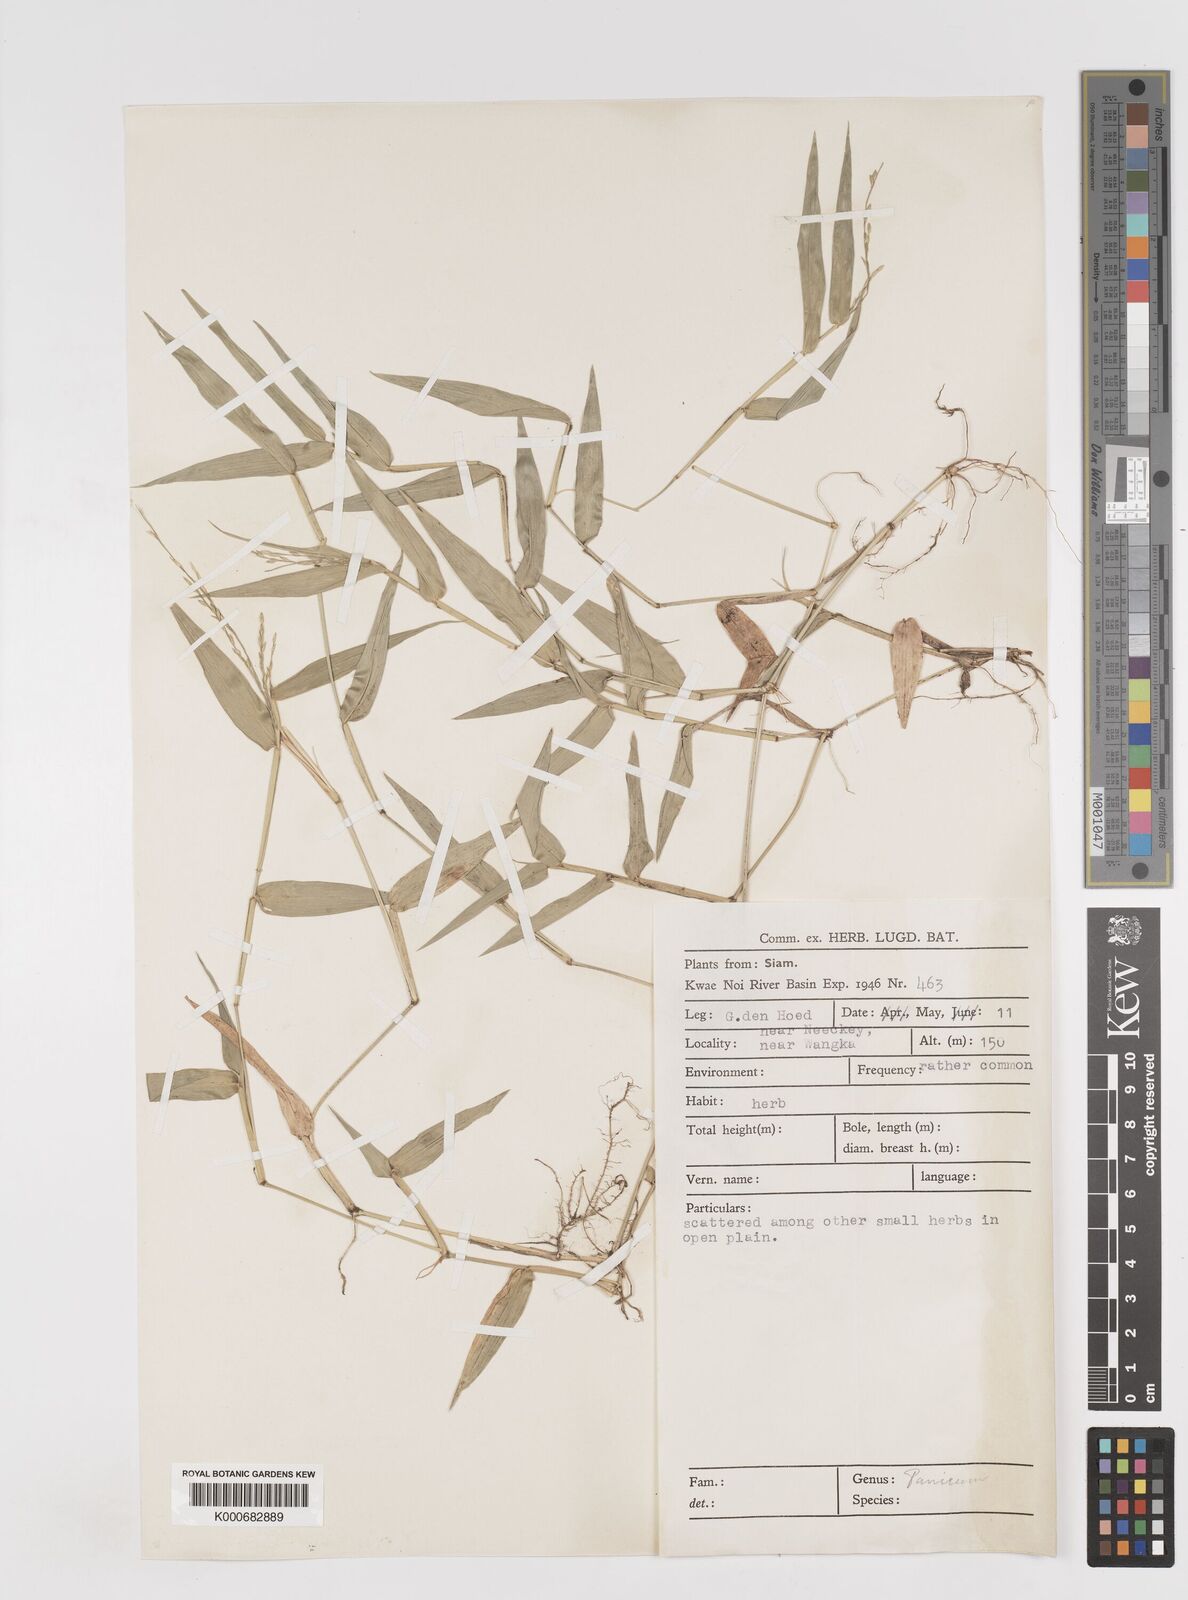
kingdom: Plantae
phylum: Tracheophyta
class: Liliopsida
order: Poales
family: Poaceae
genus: Ottochloa
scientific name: Ottochloa nodosa
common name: Slender-panic grass
